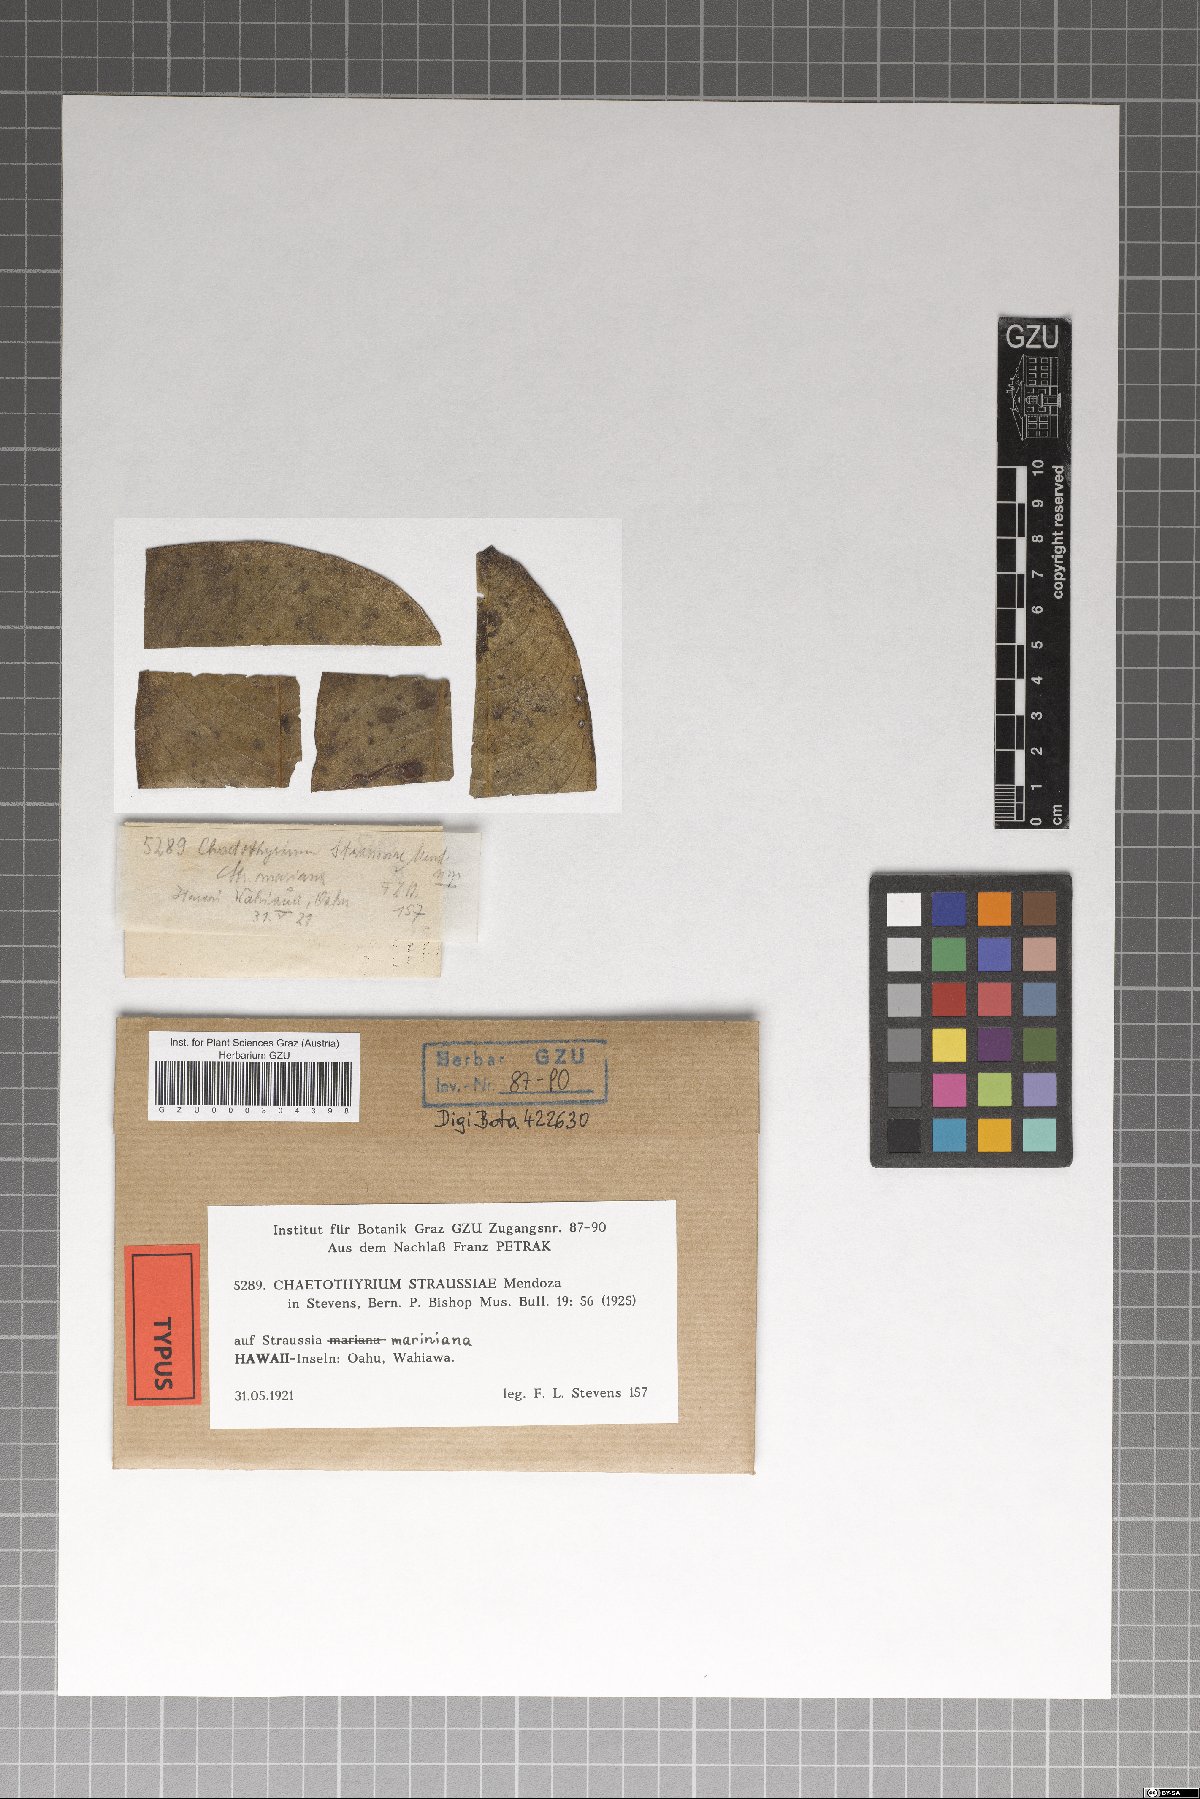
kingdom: Fungi
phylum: Ascomycota
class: Eurotiomycetes
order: Chaetothyriales
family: Chaetothyriaceae
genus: Chaetothyrium
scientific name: Chaetothyrium straussiae
